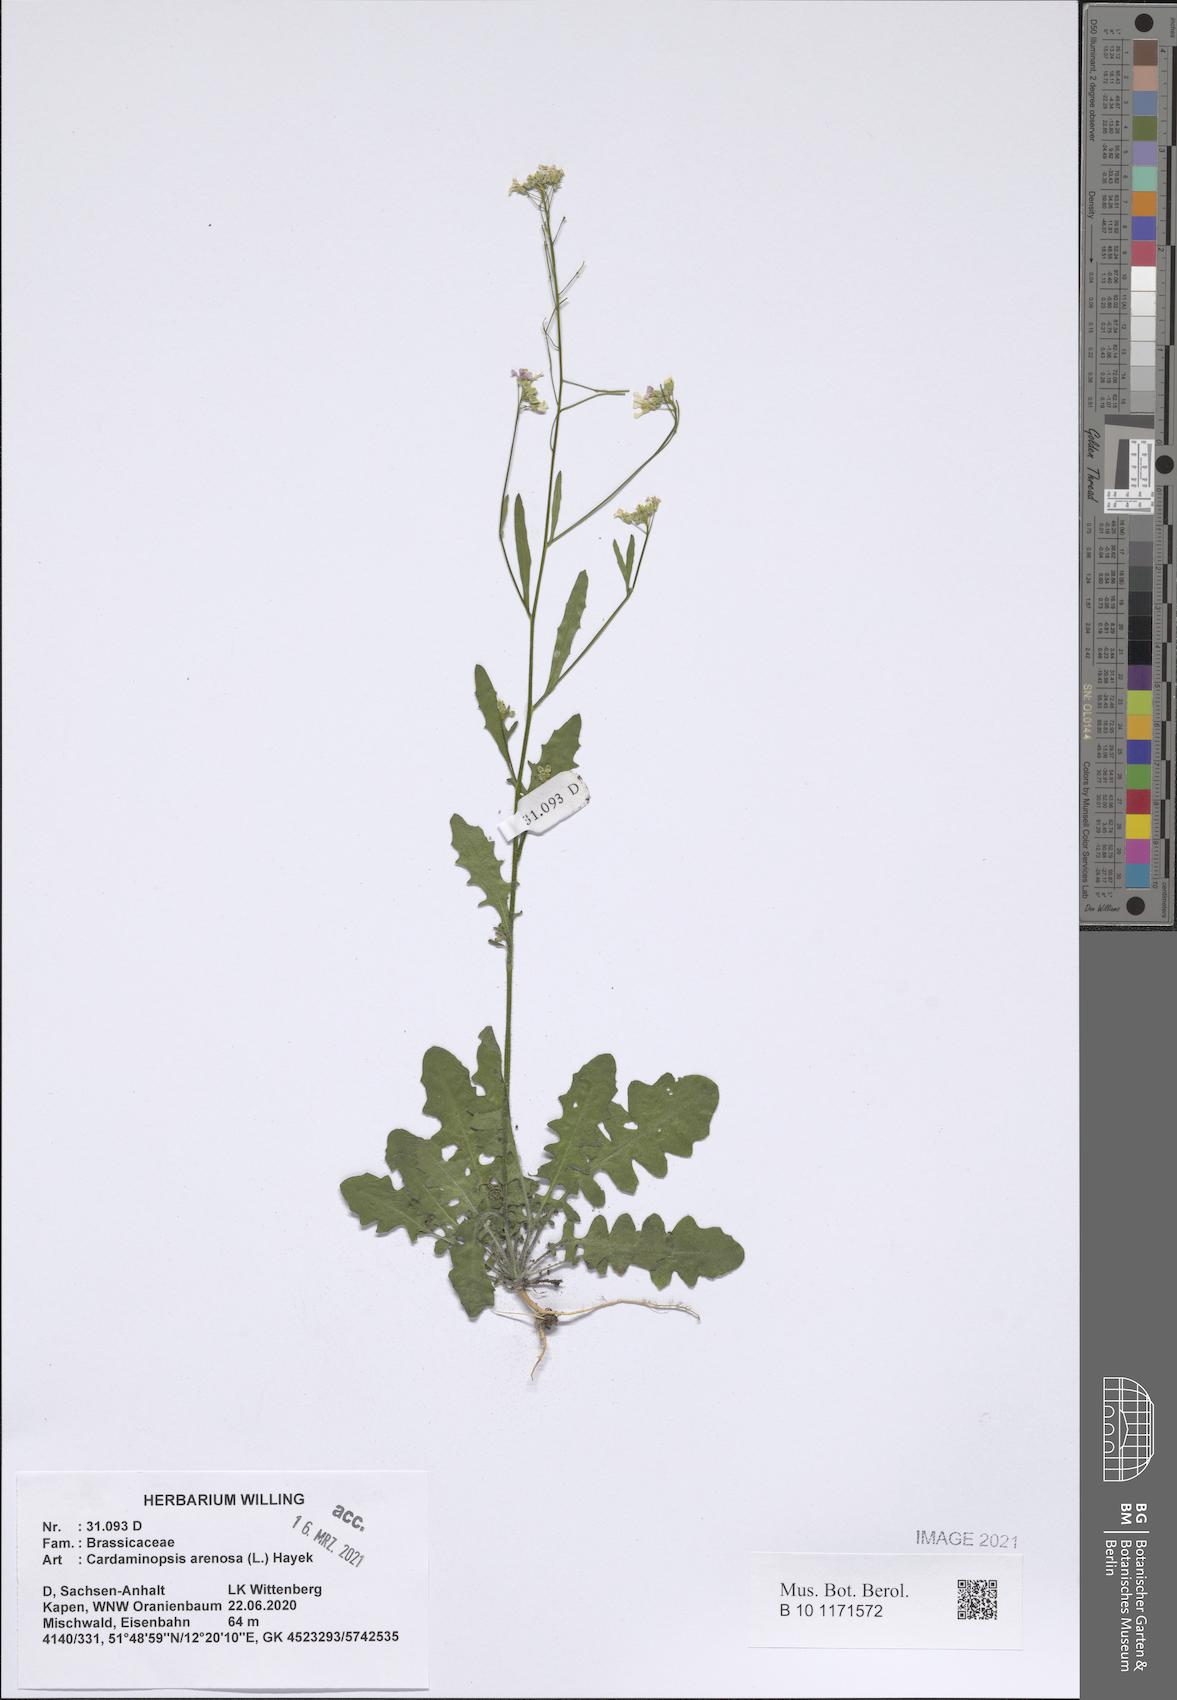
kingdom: Plantae
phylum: Tracheophyta
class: Magnoliopsida
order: Brassicales
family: Brassicaceae
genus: Arabidopsis
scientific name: Arabidopsis arenosa
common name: Sand rock-cress
